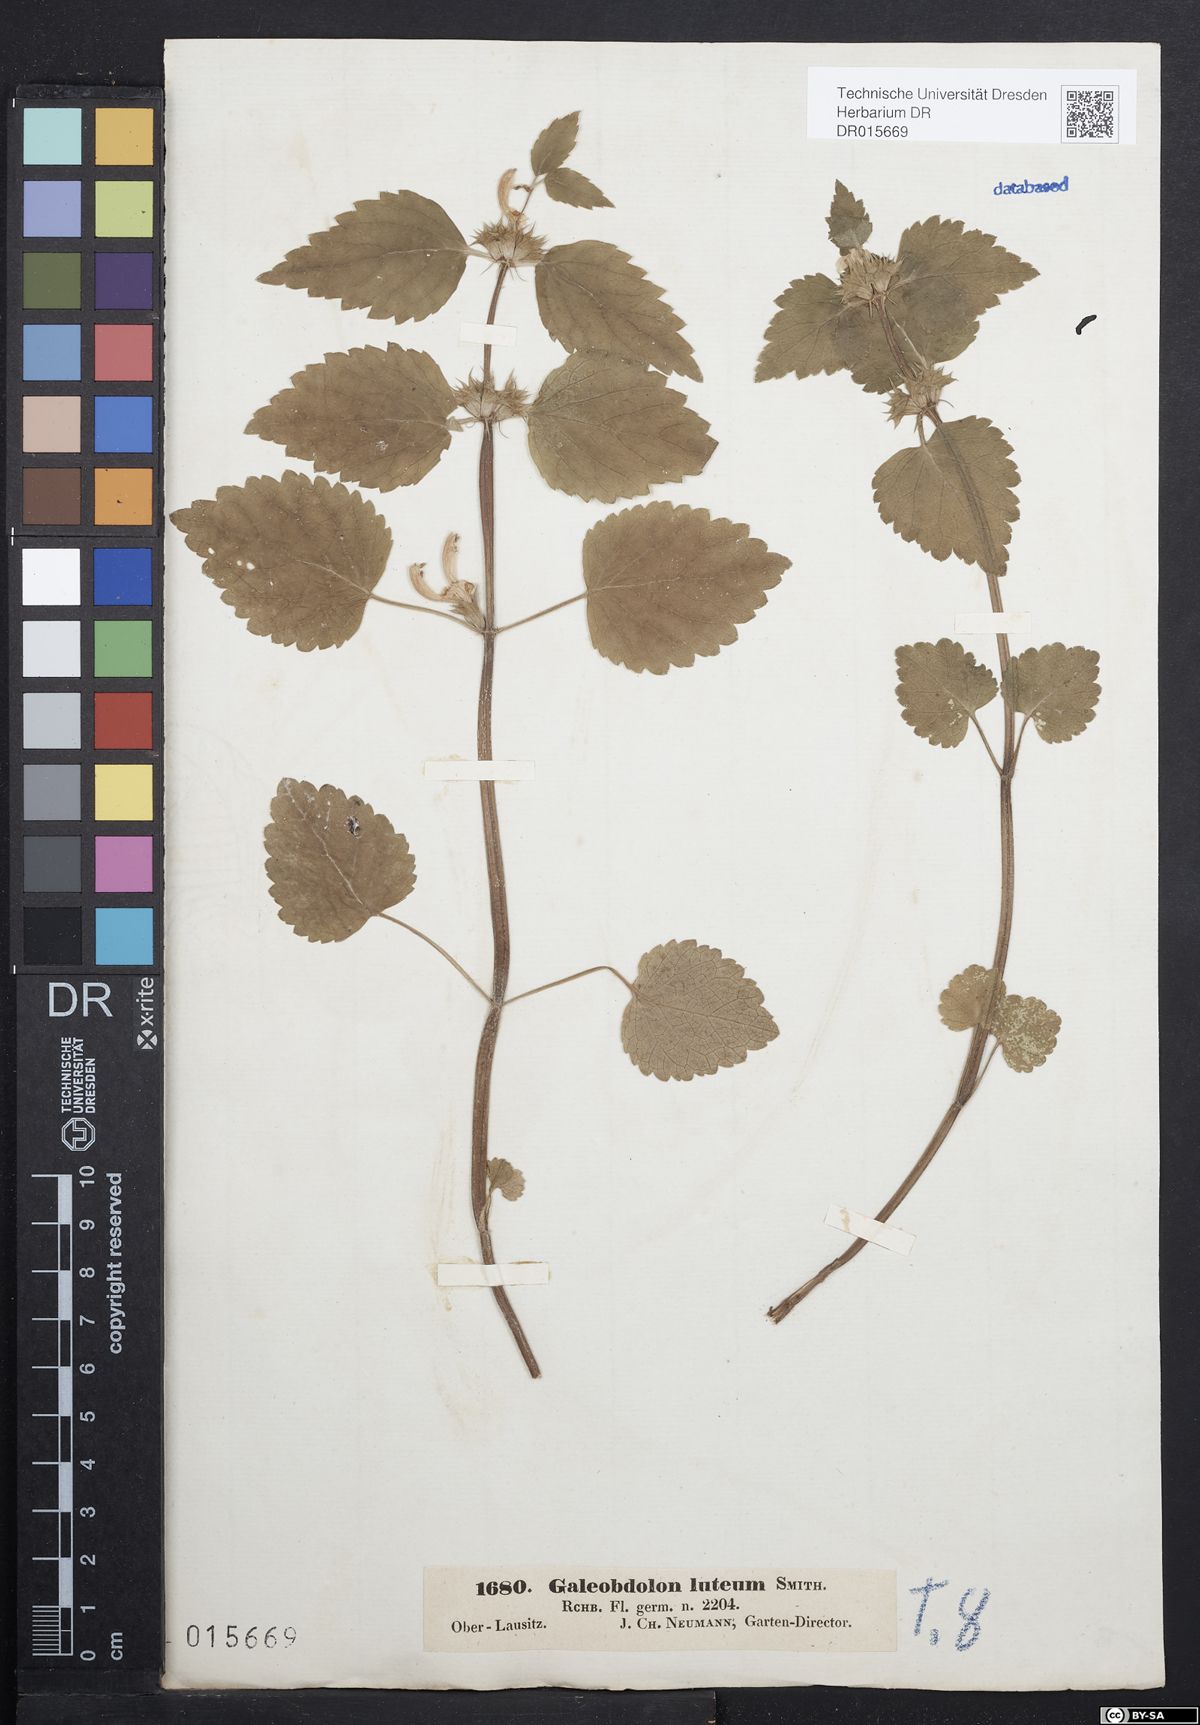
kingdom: Plantae
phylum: Tracheophyta
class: Magnoliopsida
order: Lamiales
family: Lamiaceae
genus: Lamium
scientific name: Lamium galeobdolon
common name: Yellow archangel
